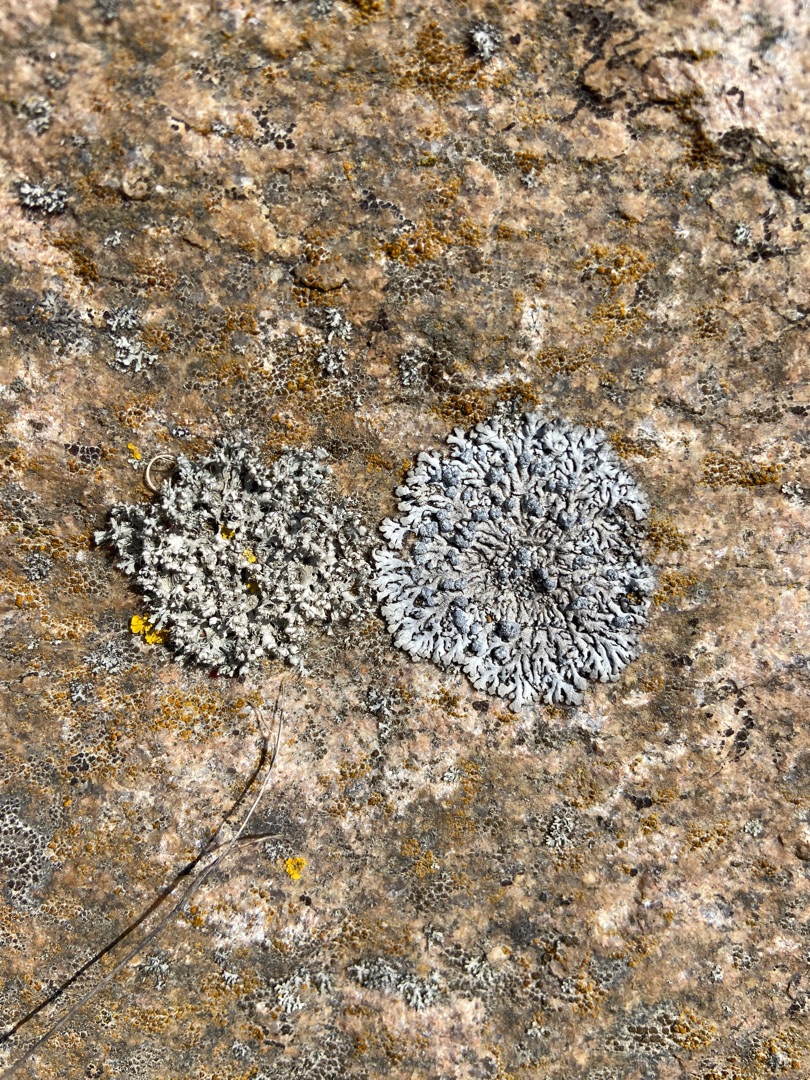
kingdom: Fungi
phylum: Ascomycota
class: Lecanoromycetes
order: Caliciales
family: Physciaceae
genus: Physcia
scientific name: Physcia caesia
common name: Blågrå rosetlav
